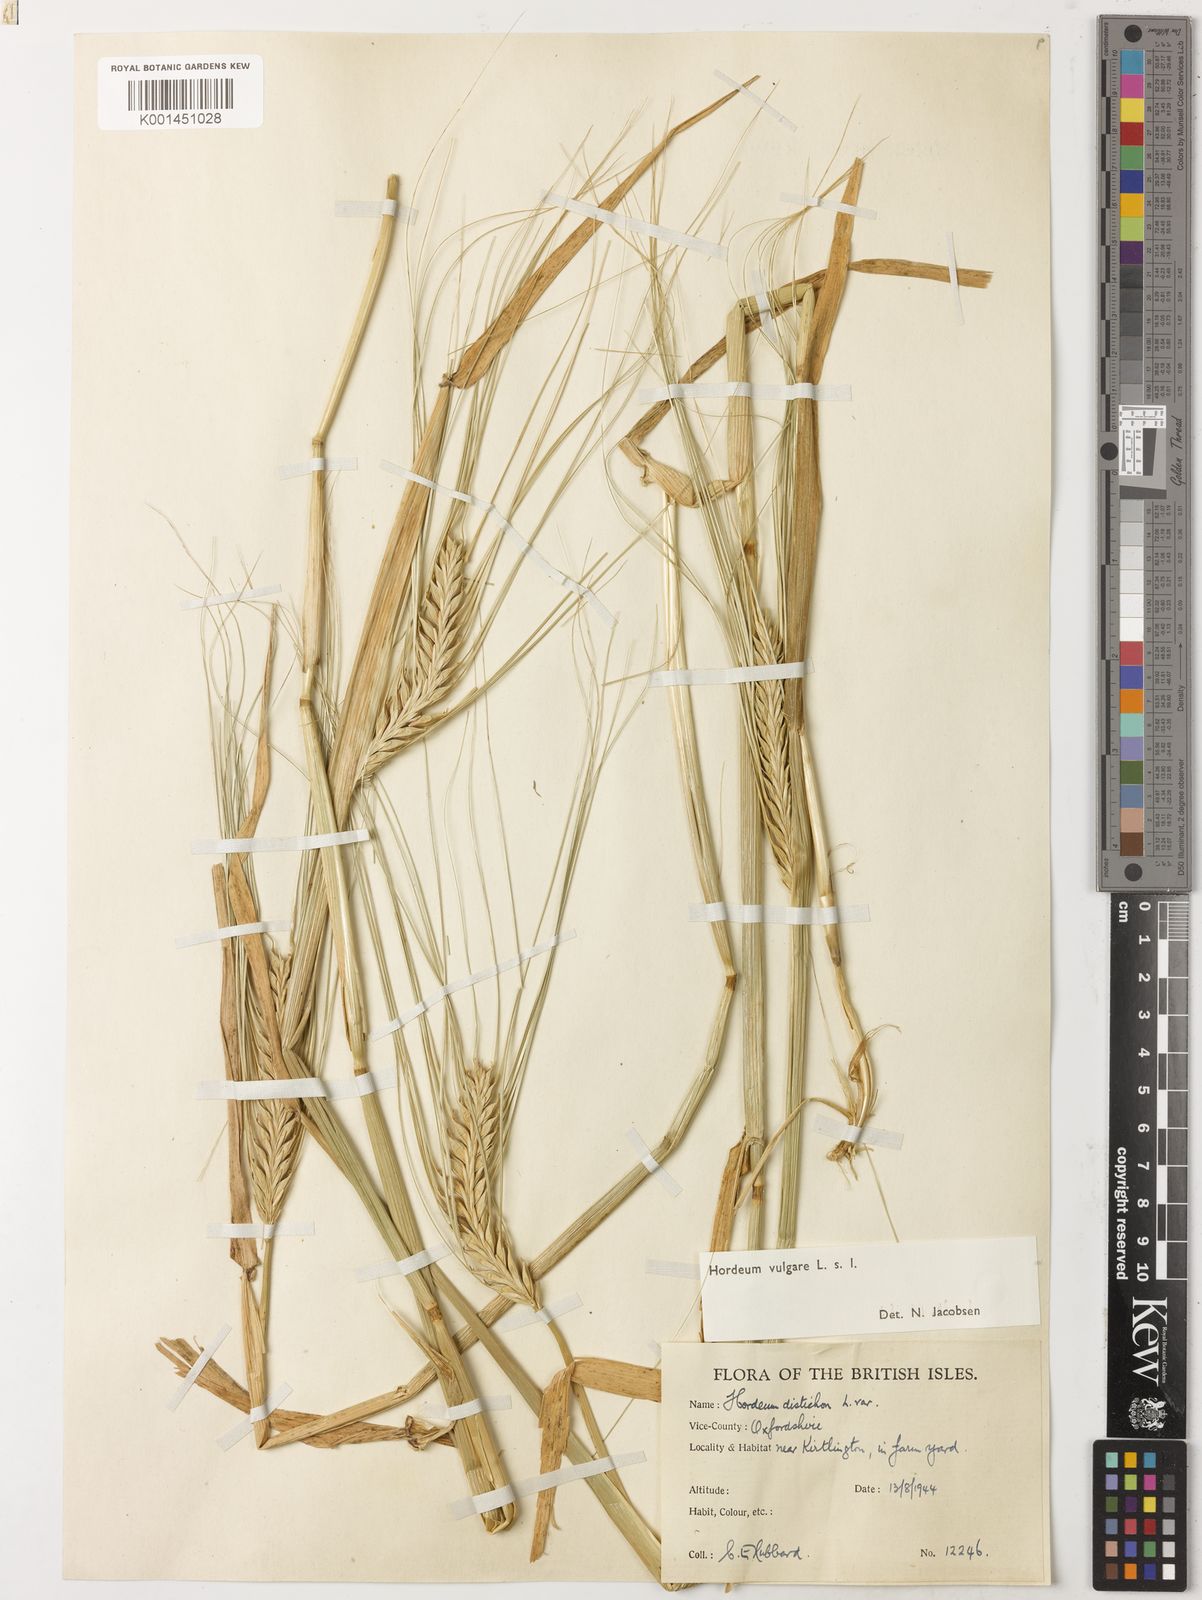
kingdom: Plantae
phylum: Tracheophyta
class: Liliopsida
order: Poales
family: Poaceae
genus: Hordeum
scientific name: Hordeum vulgare
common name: Common barley
